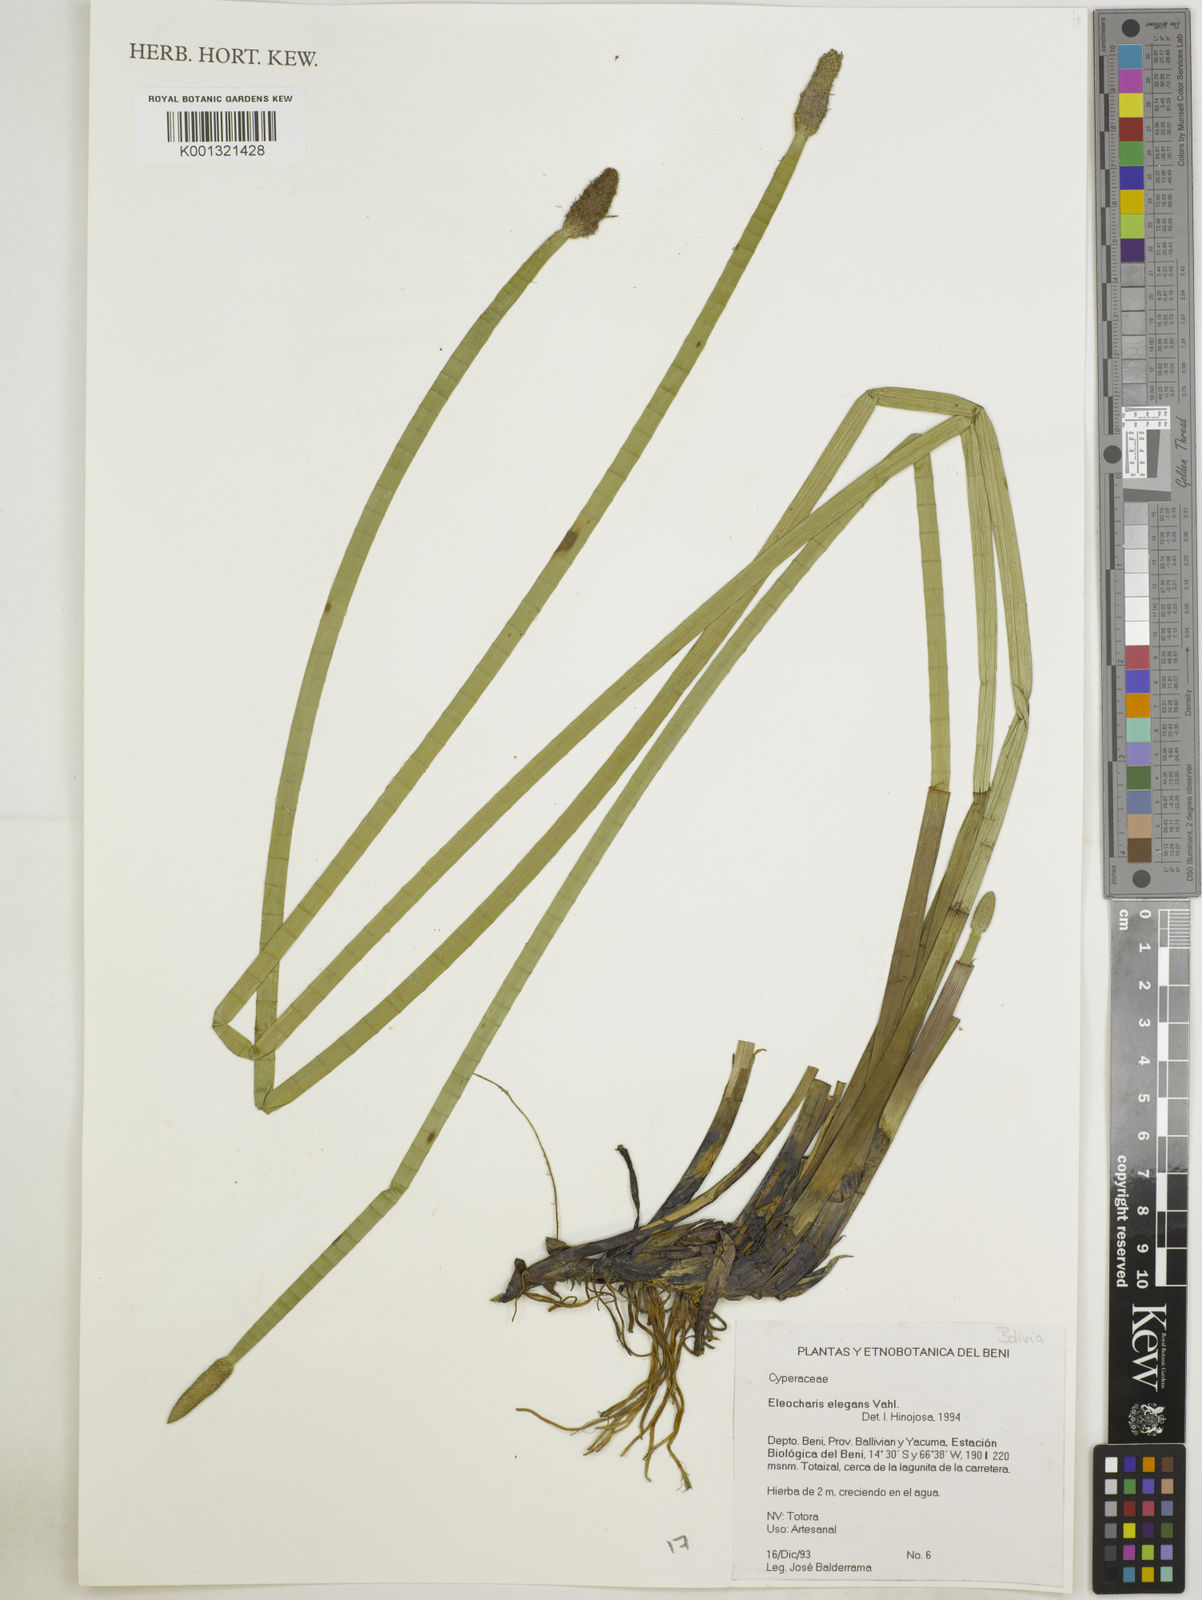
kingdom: Plantae
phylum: Tracheophyta
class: Liliopsida
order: Poales
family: Cyperaceae
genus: Eleocharis
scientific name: Eleocharis elegans
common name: Elegant spike-rush
